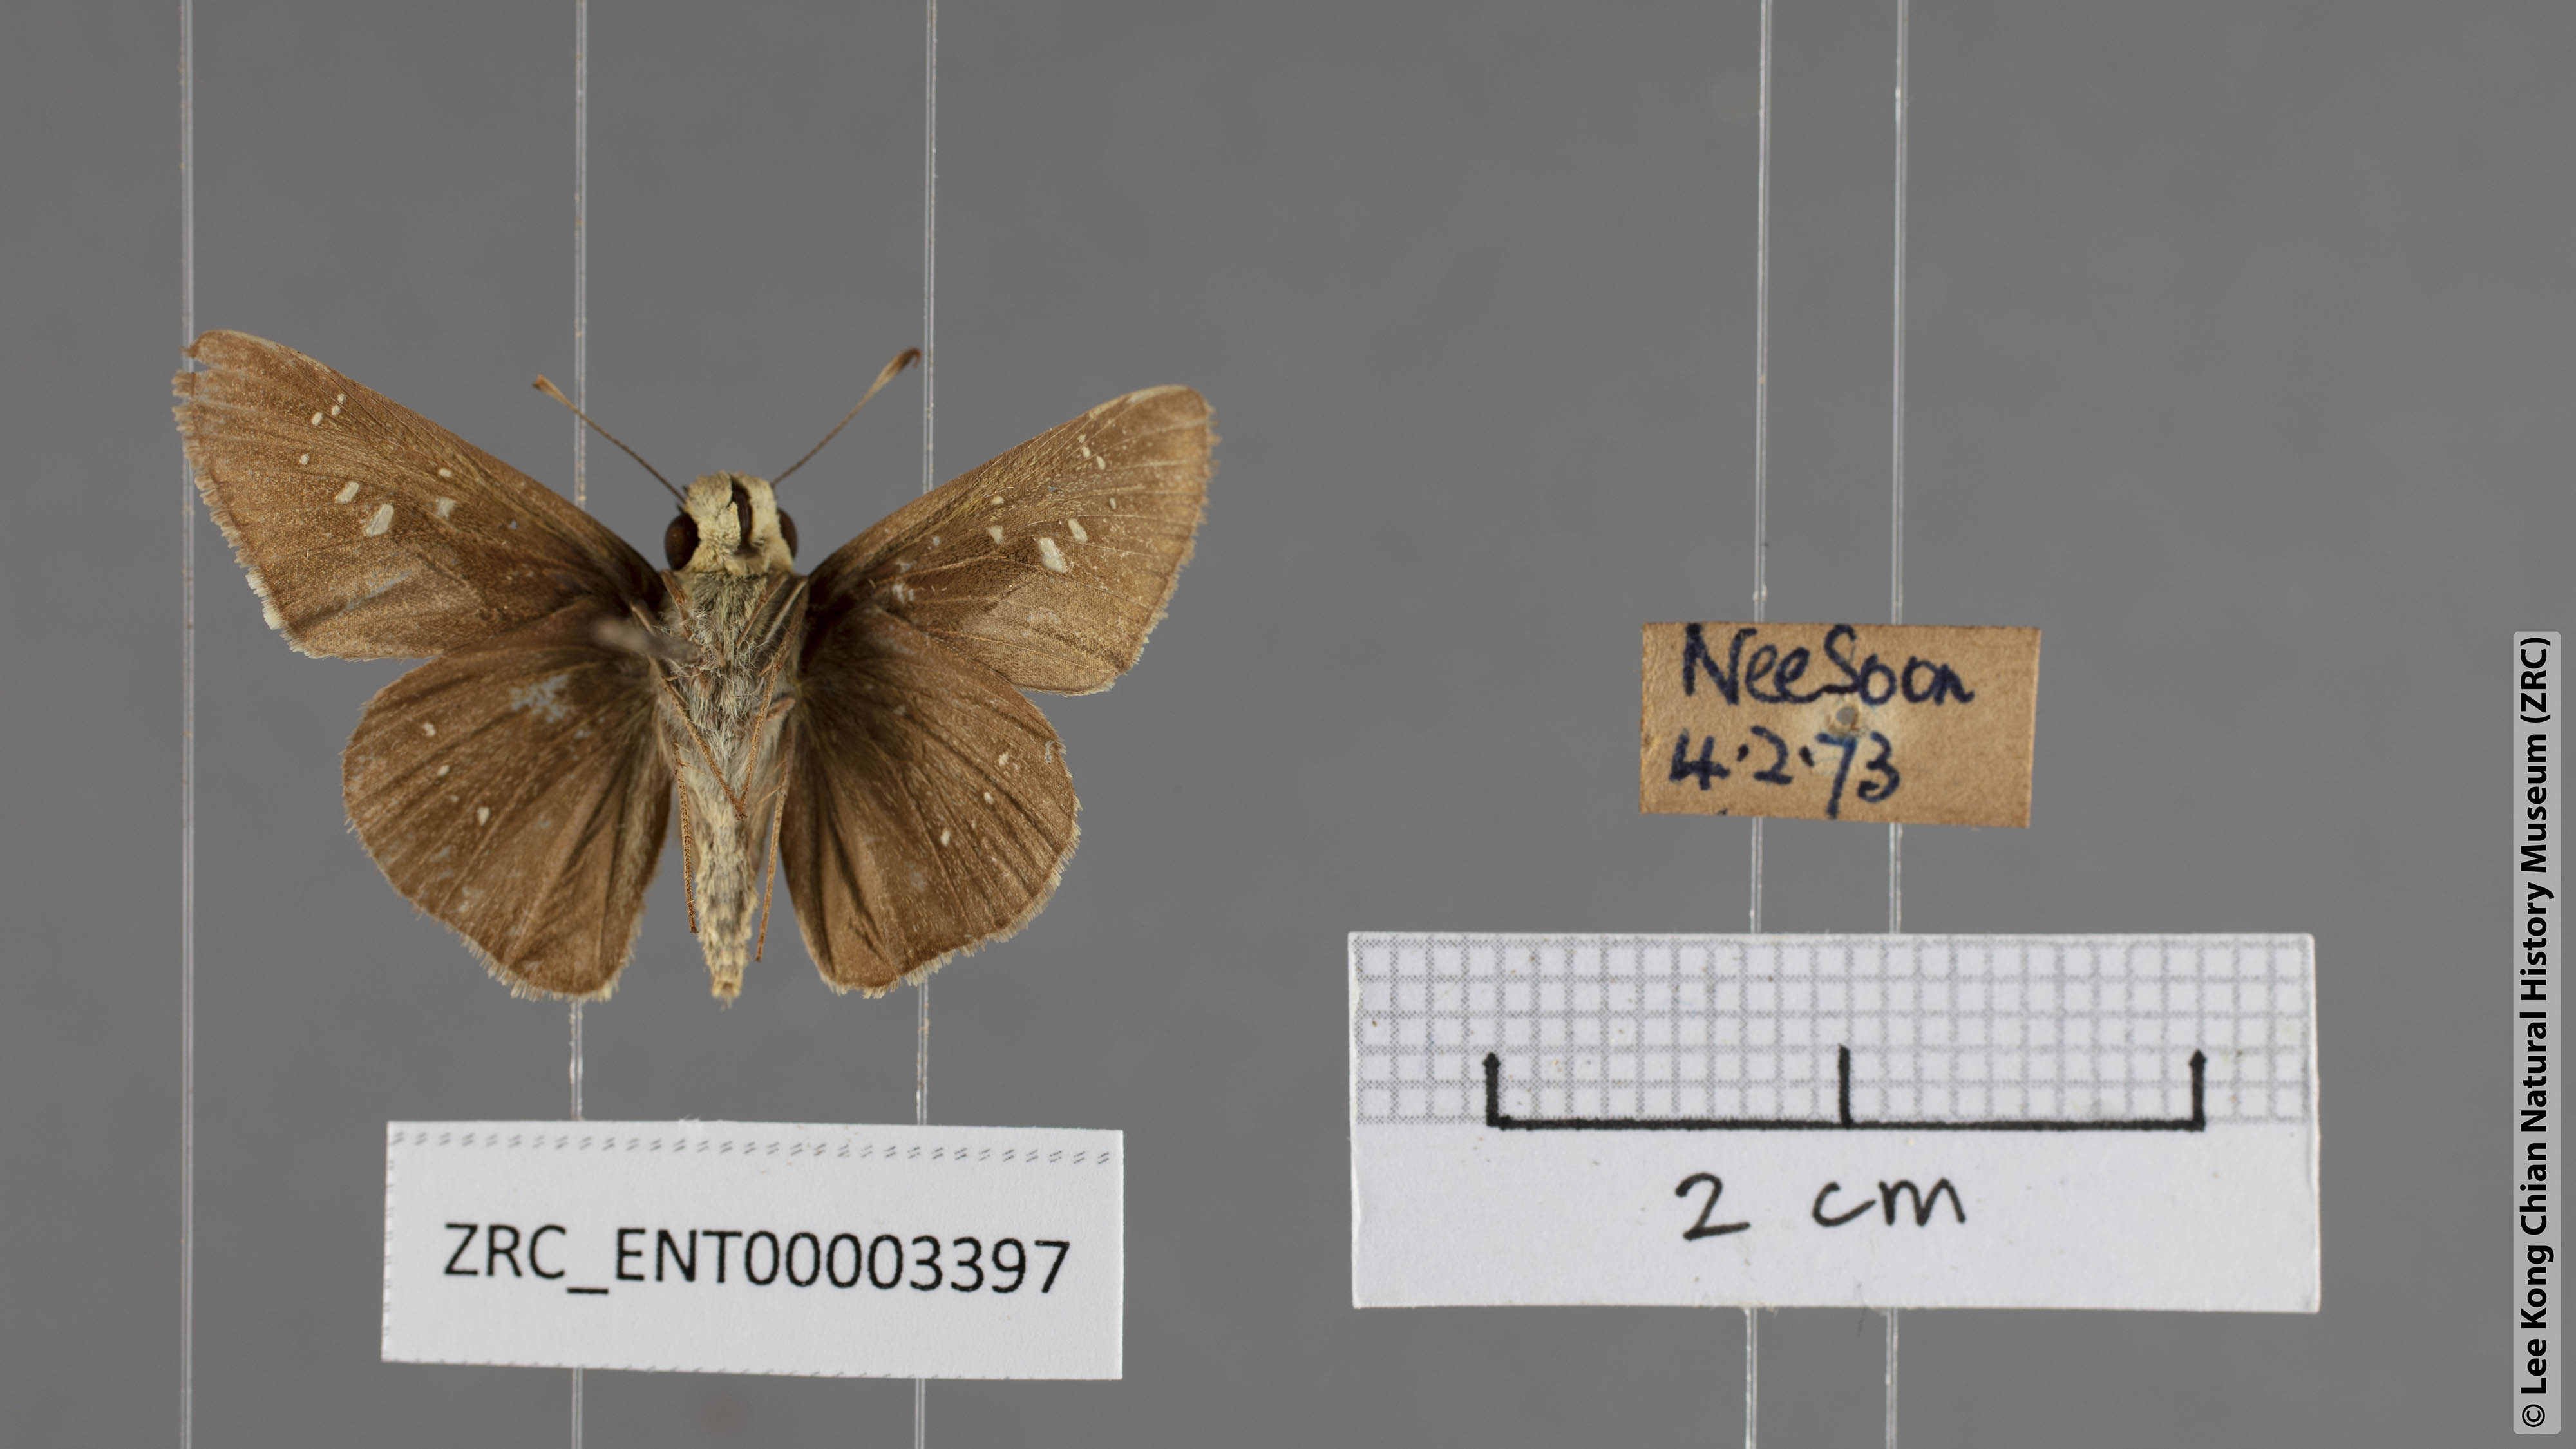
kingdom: Animalia
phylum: Arthropoda
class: Insecta
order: Lepidoptera
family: Hesperiidae
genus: Pelopidas
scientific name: Pelopidas agna
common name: Little branded swift
